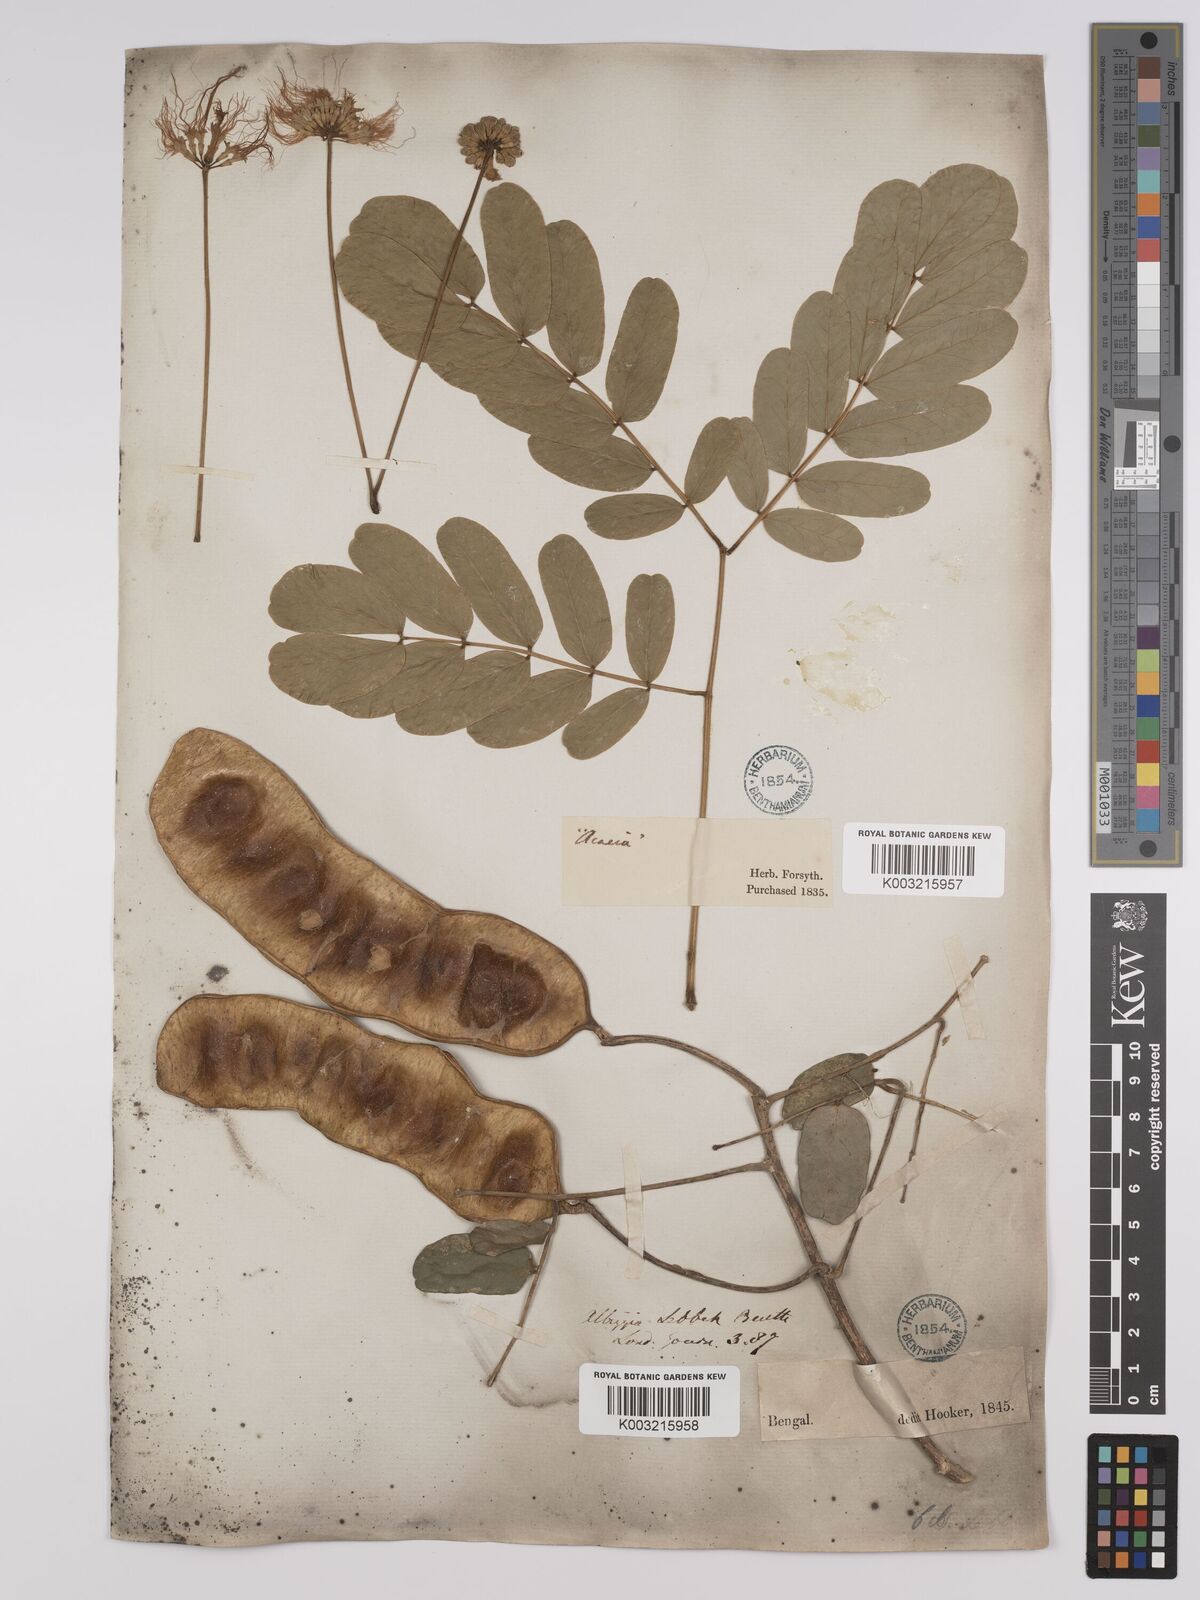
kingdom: Plantae
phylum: Tracheophyta
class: Magnoliopsida
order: Fabales
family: Fabaceae
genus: Albizia
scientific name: Albizia lebbeck
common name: Woman's tongue
